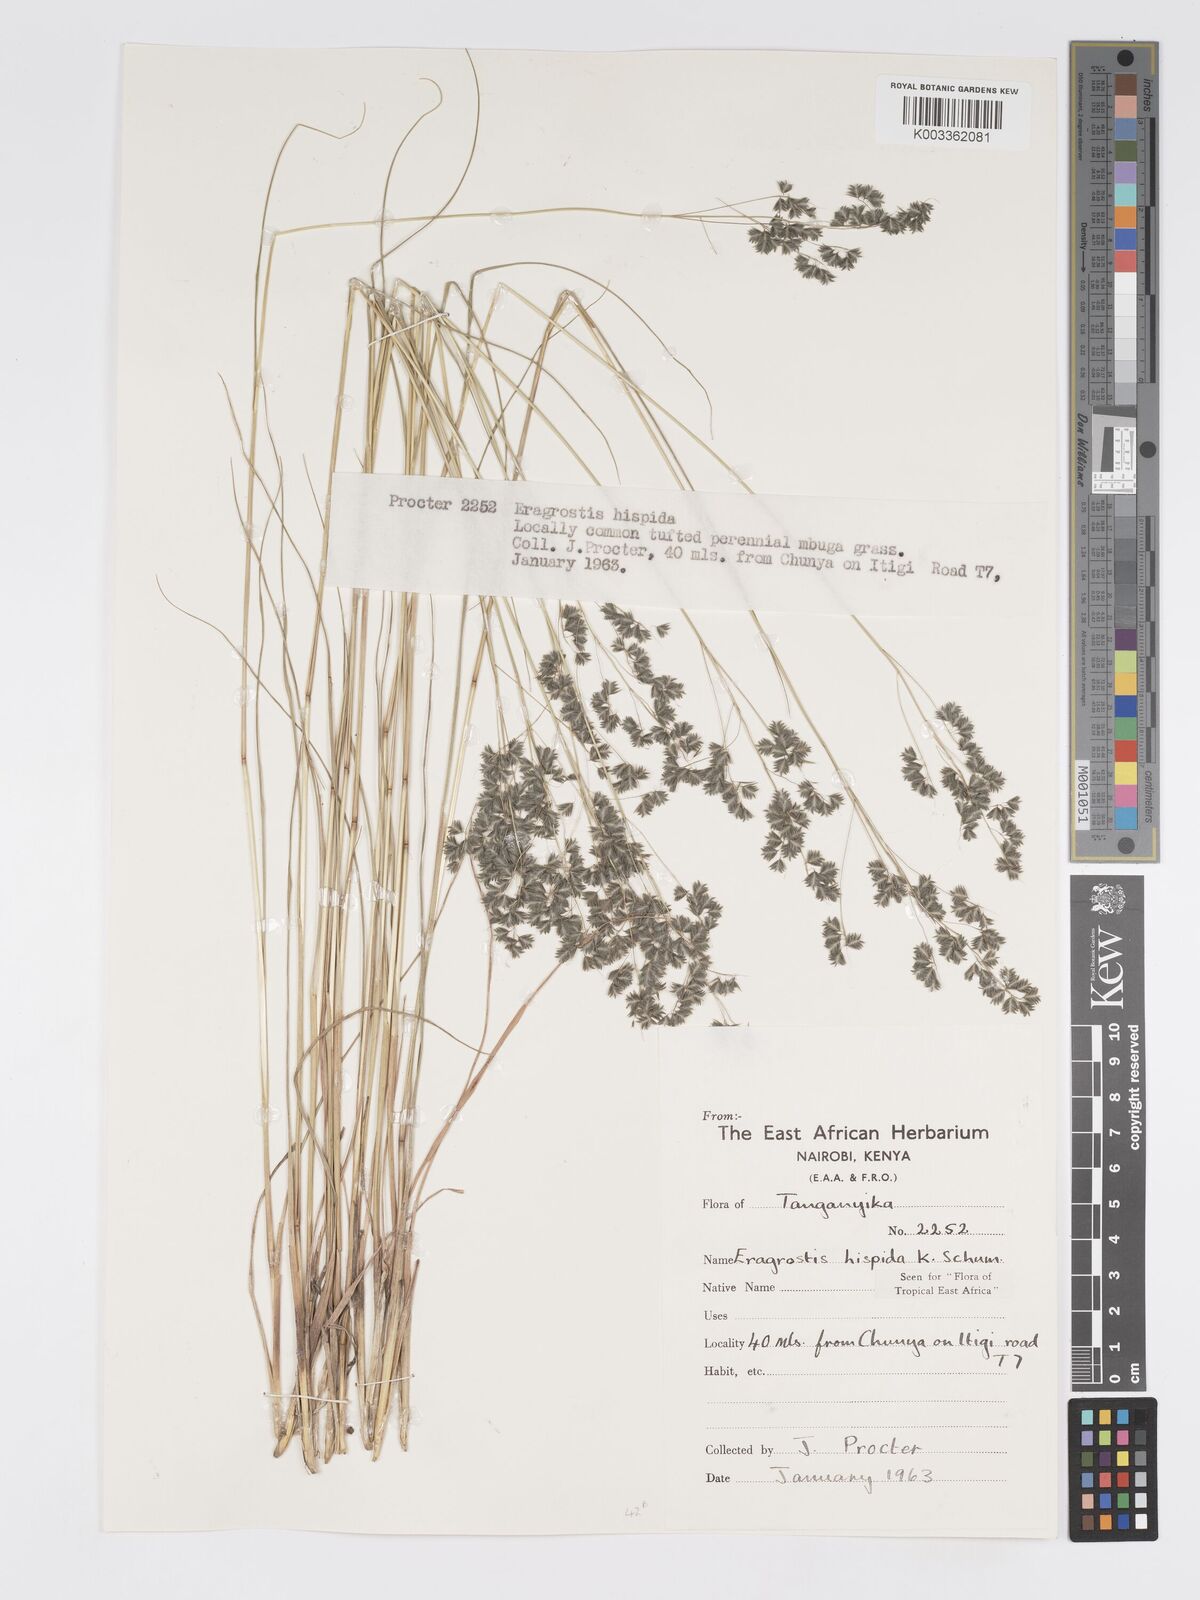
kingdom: Plantae
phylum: Tracheophyta
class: Liliopsida
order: Poales
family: Poaceae
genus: Eragrostis
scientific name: Eragrostis hispida
